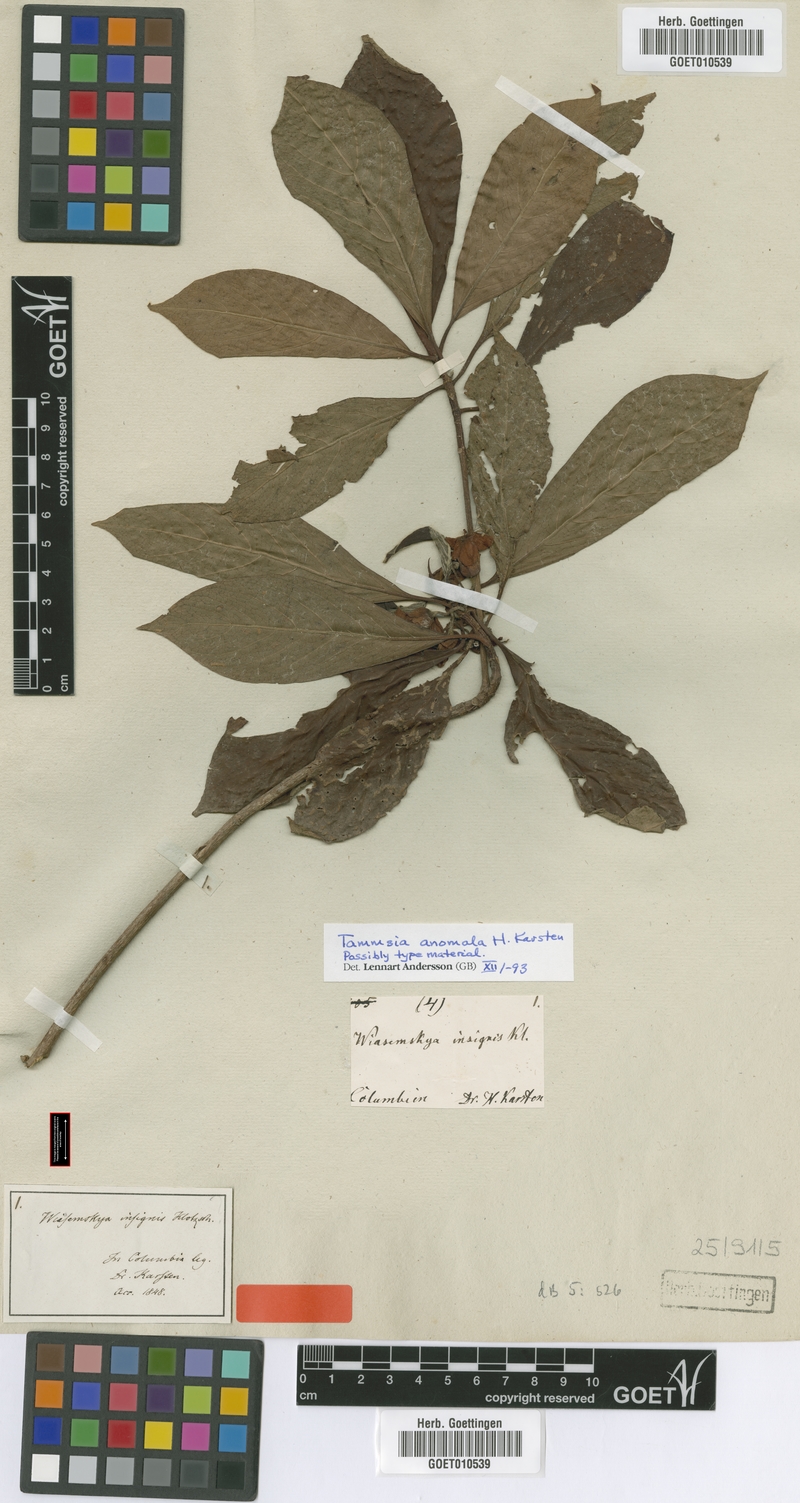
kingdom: Plantae
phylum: Tracheophyta
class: Magnoliopsida
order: Gentianales
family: Rubiaceae
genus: Tammsia
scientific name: Tammsia anomala
